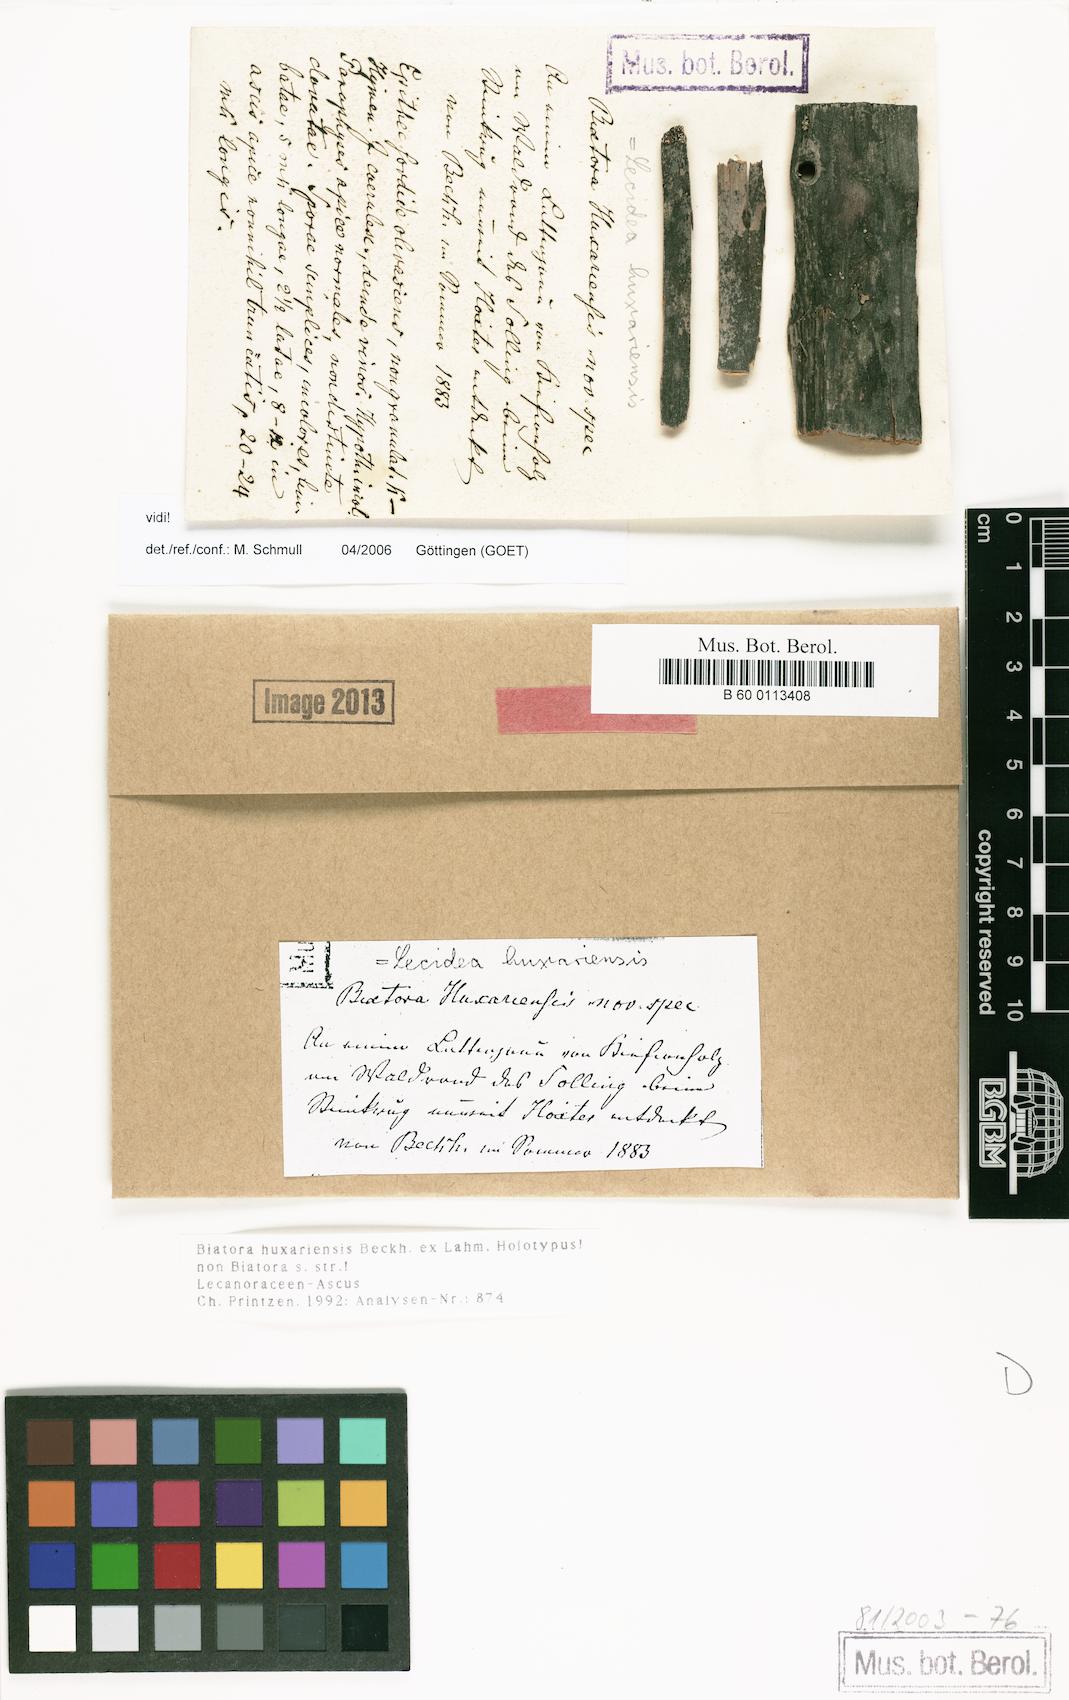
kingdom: Fungi
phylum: Ascomycota
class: Lecanoromycetes
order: Lecanorales
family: Ramalinaceae
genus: Biatora
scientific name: Biatora
